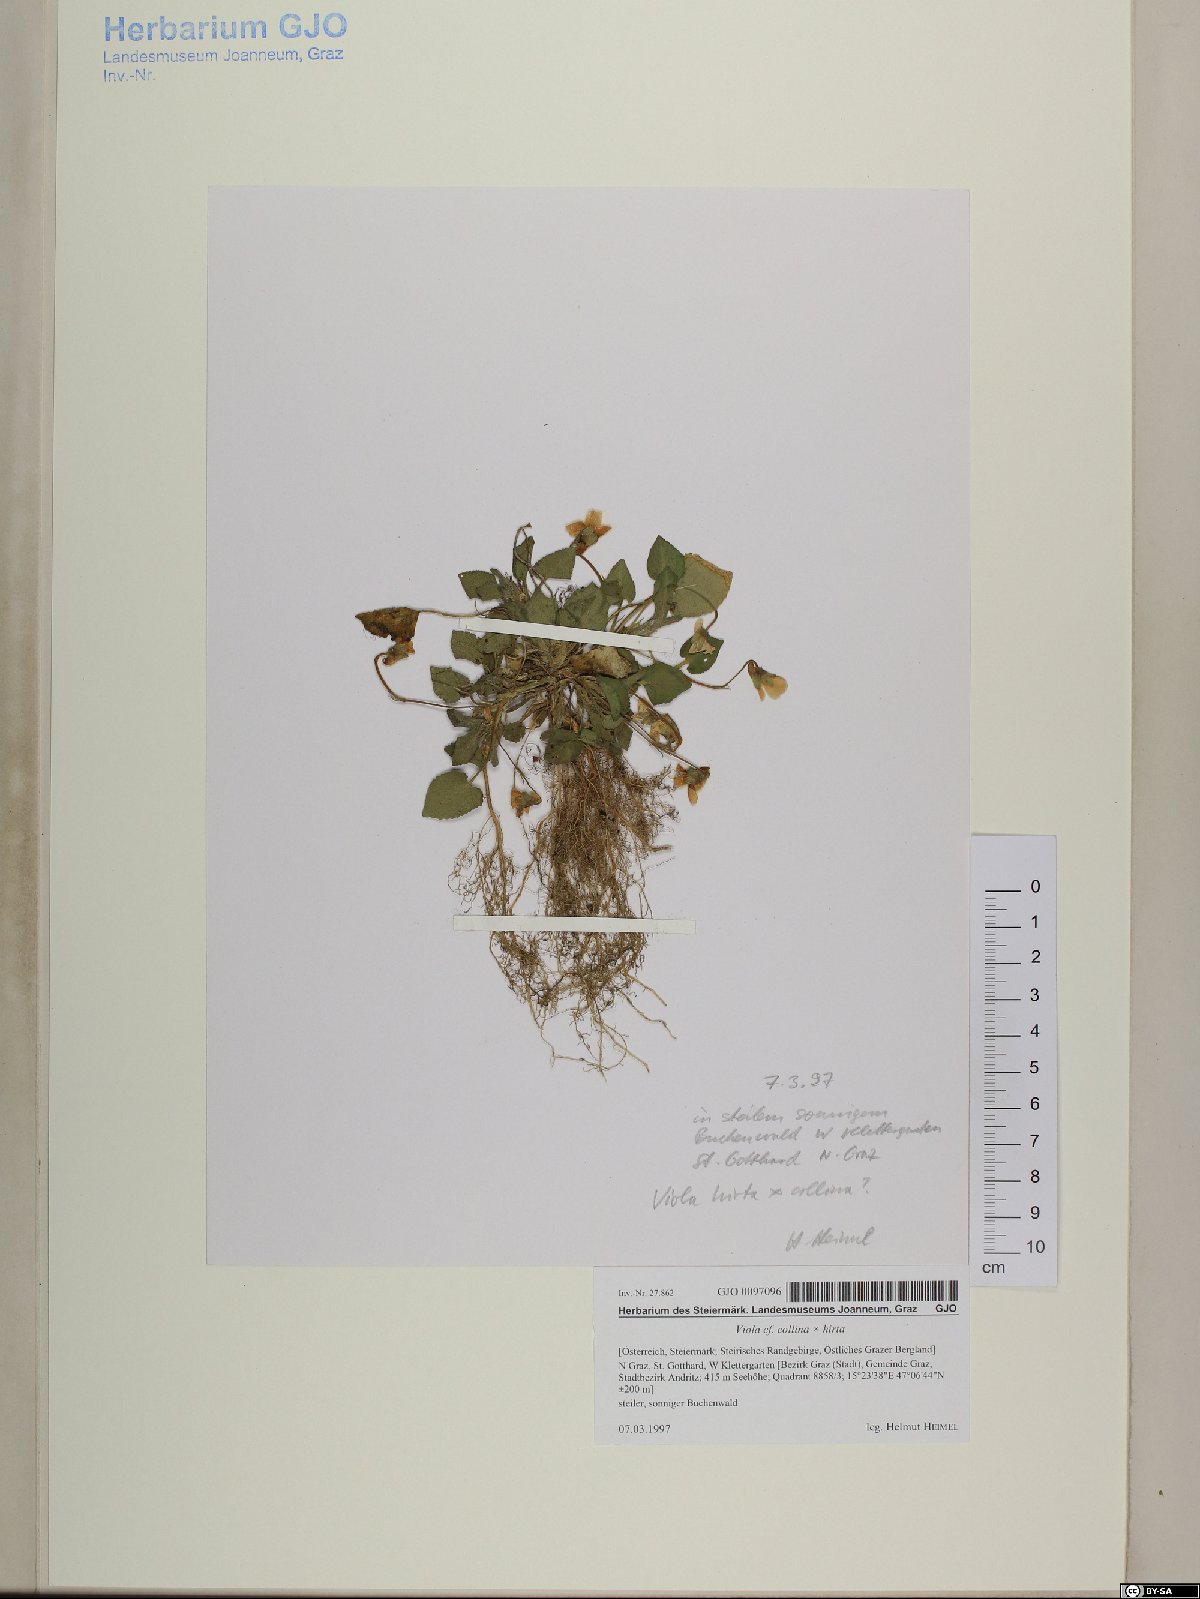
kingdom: Plantae
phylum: Tracheophyta
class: Magnoliopsida
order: Malpighiales
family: Violaceae
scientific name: Violaceae
